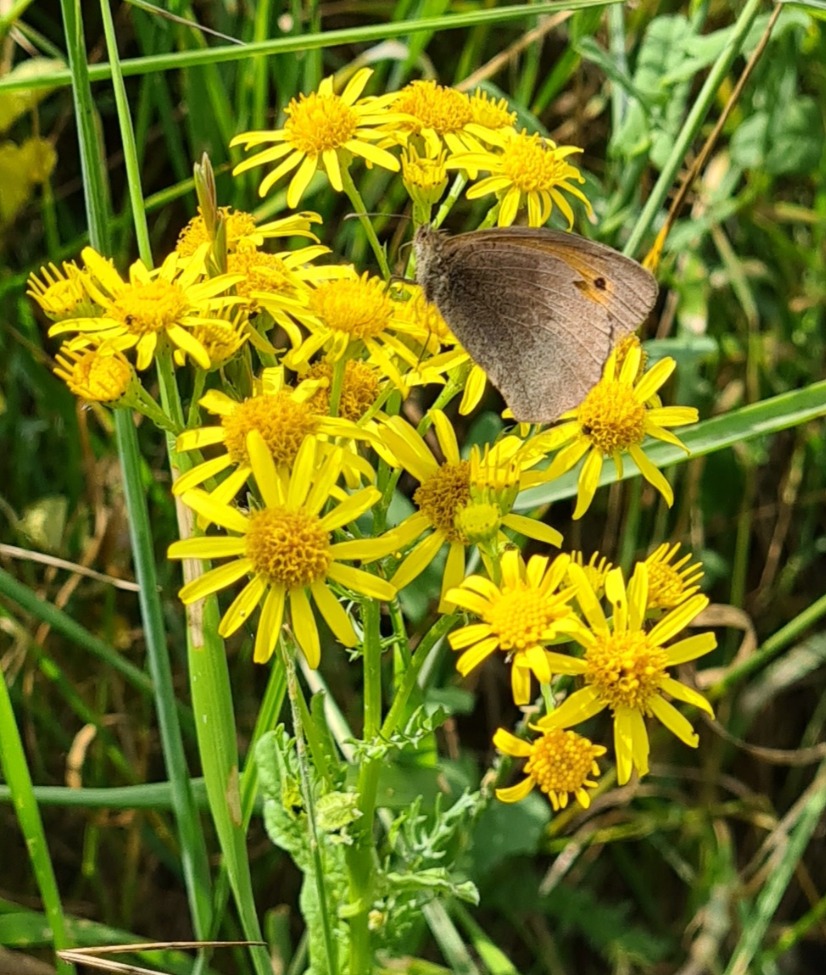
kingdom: Animalia
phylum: Arthropoda
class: Insecta
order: Lepidoptera
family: Nymphalidae
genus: Maniola
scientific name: Maniola jurtina
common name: Græsrandøje
